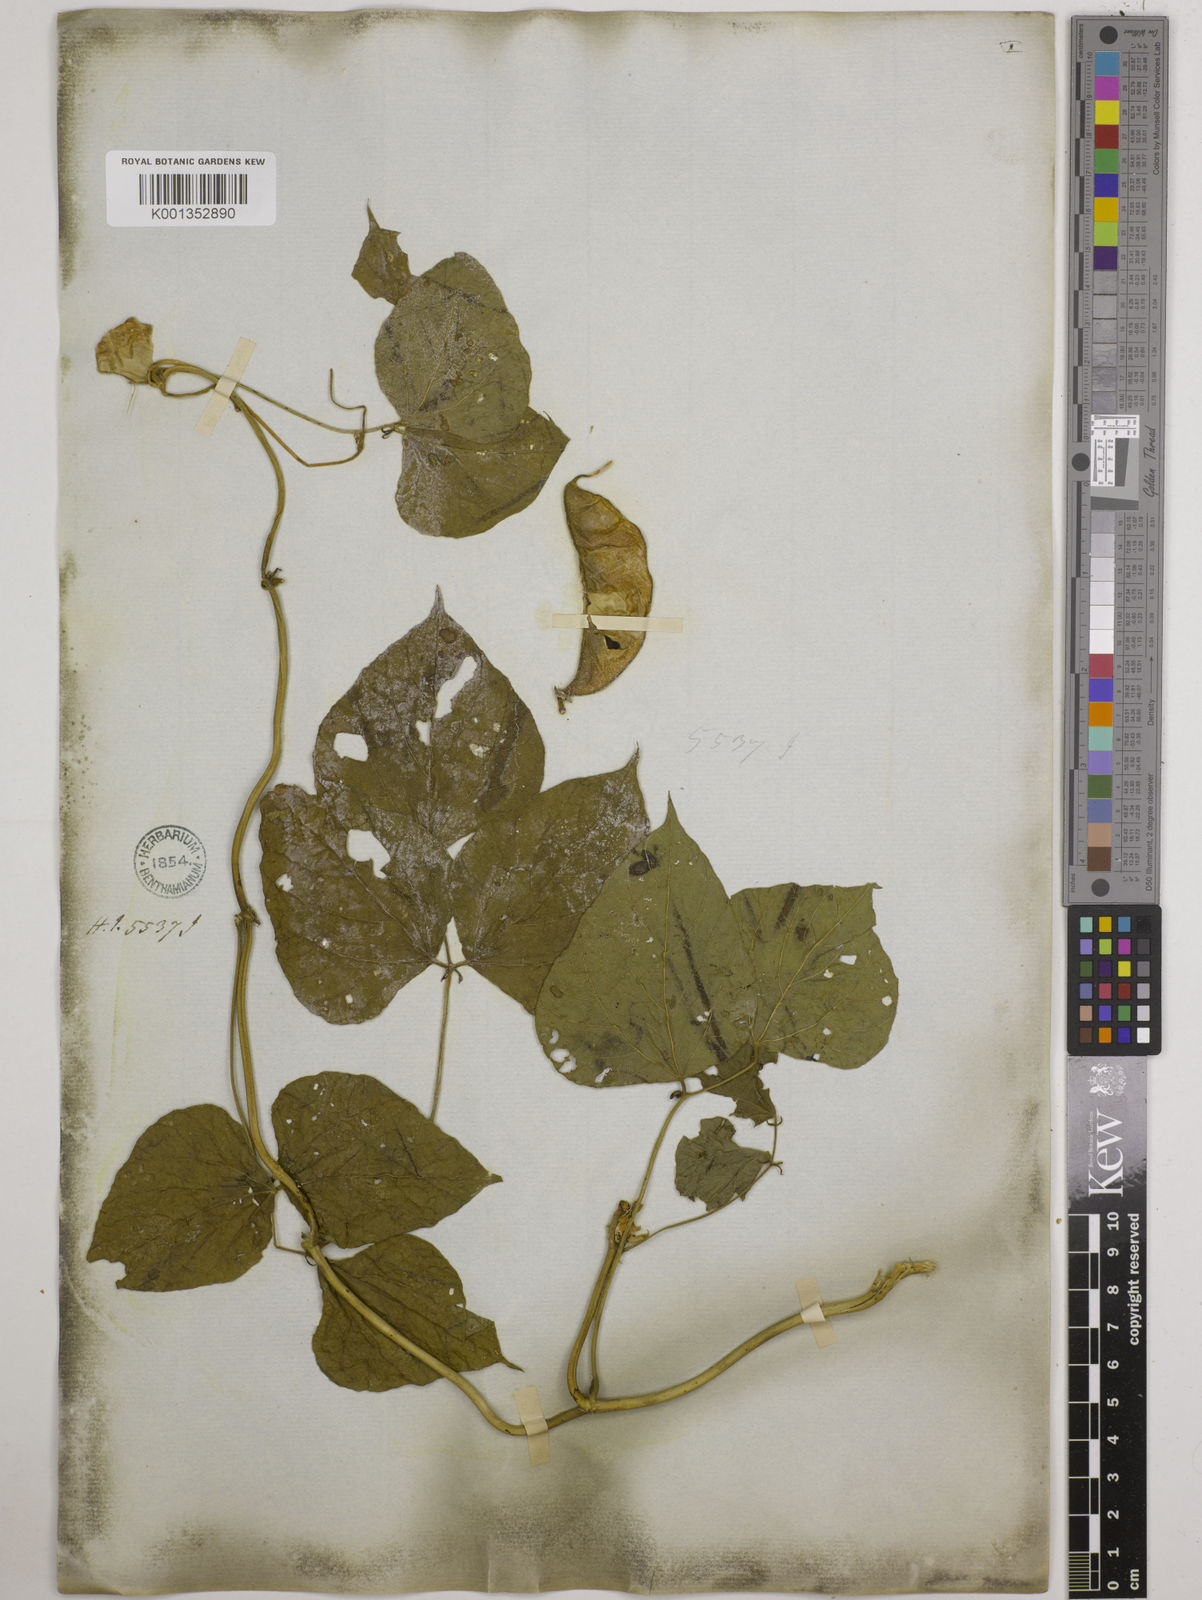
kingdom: Plantae
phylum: Tracheophyta
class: Magnoliopsida
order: Fabales
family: Fabaceae
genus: Lablab
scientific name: Lablab purpureus
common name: Lablab-bean
